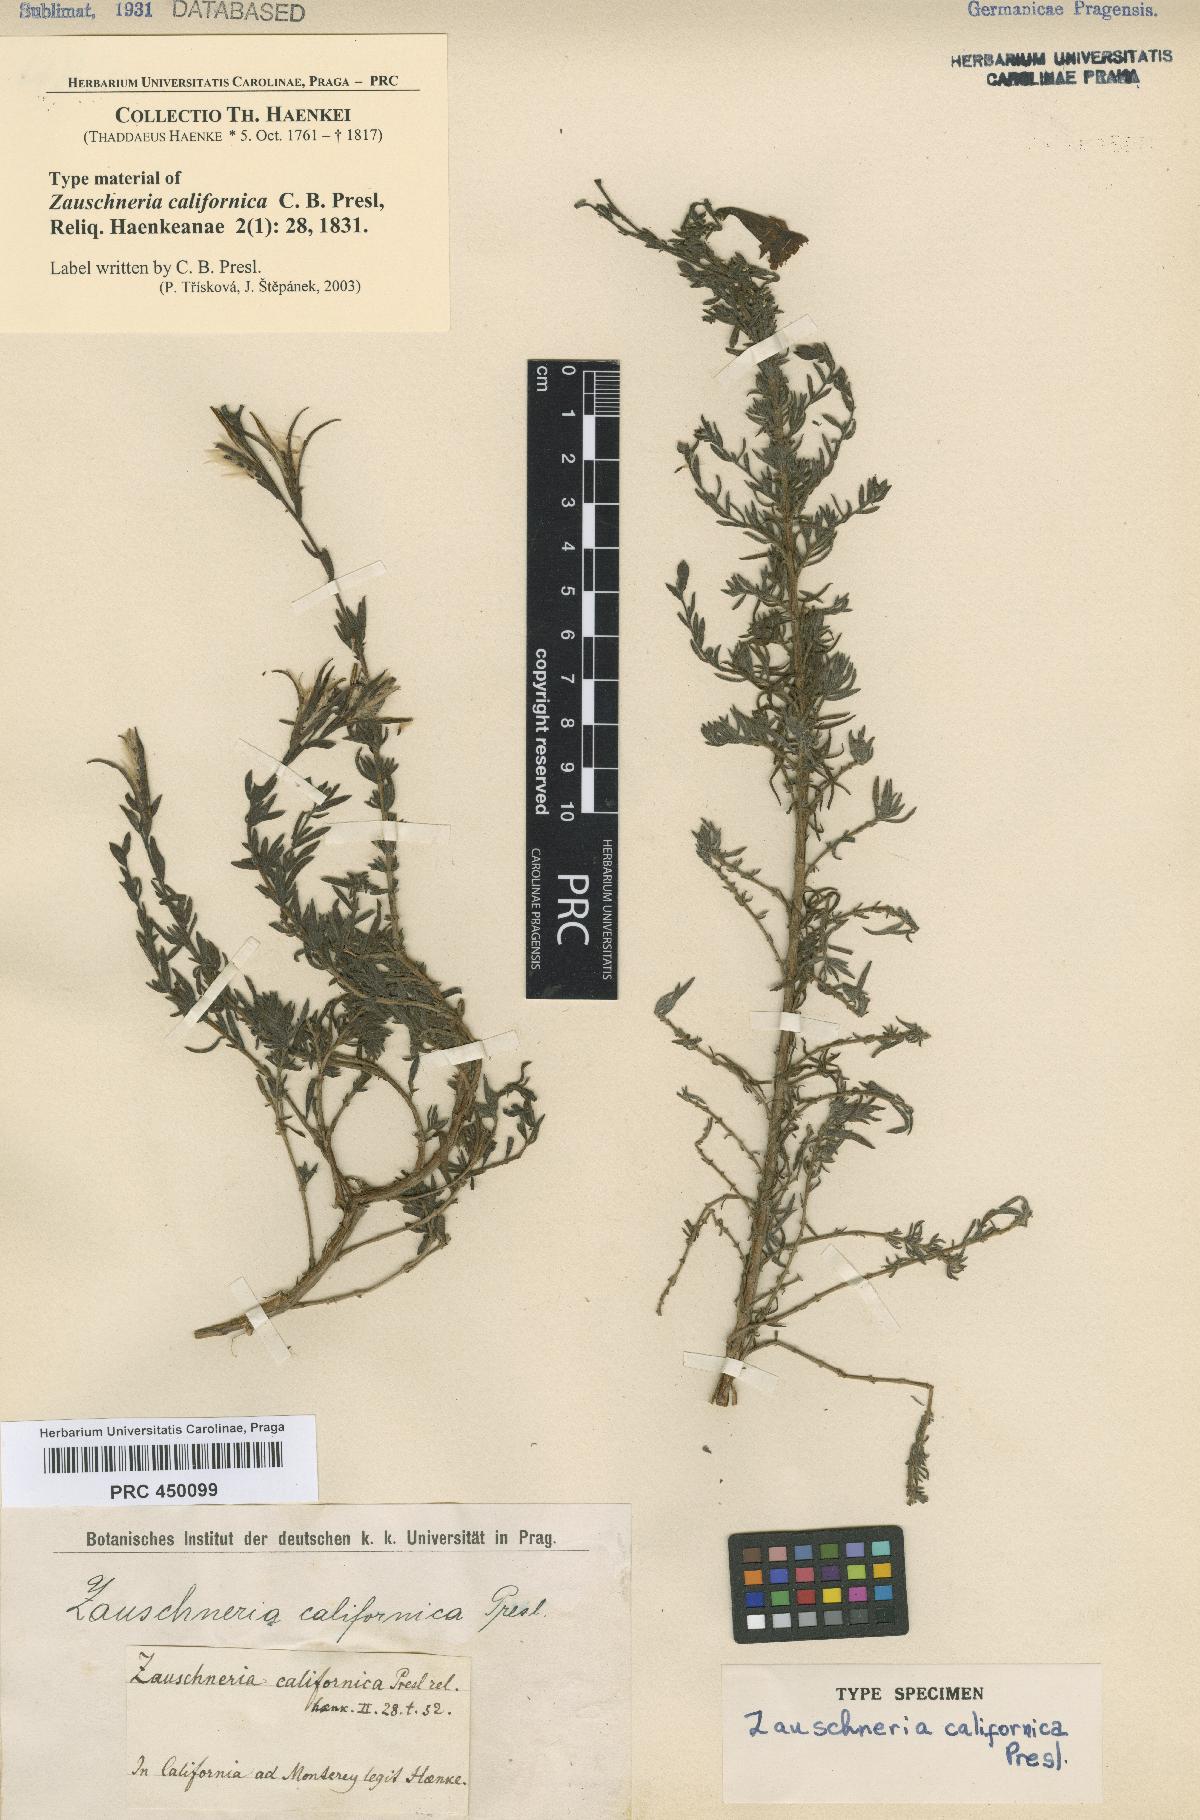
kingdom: Plantae
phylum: Tracheophyta
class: Magnoliopsida
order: Myrtales
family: Onagraceae
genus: Epilobium
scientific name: Epilobium canum
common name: California-fuchsia
